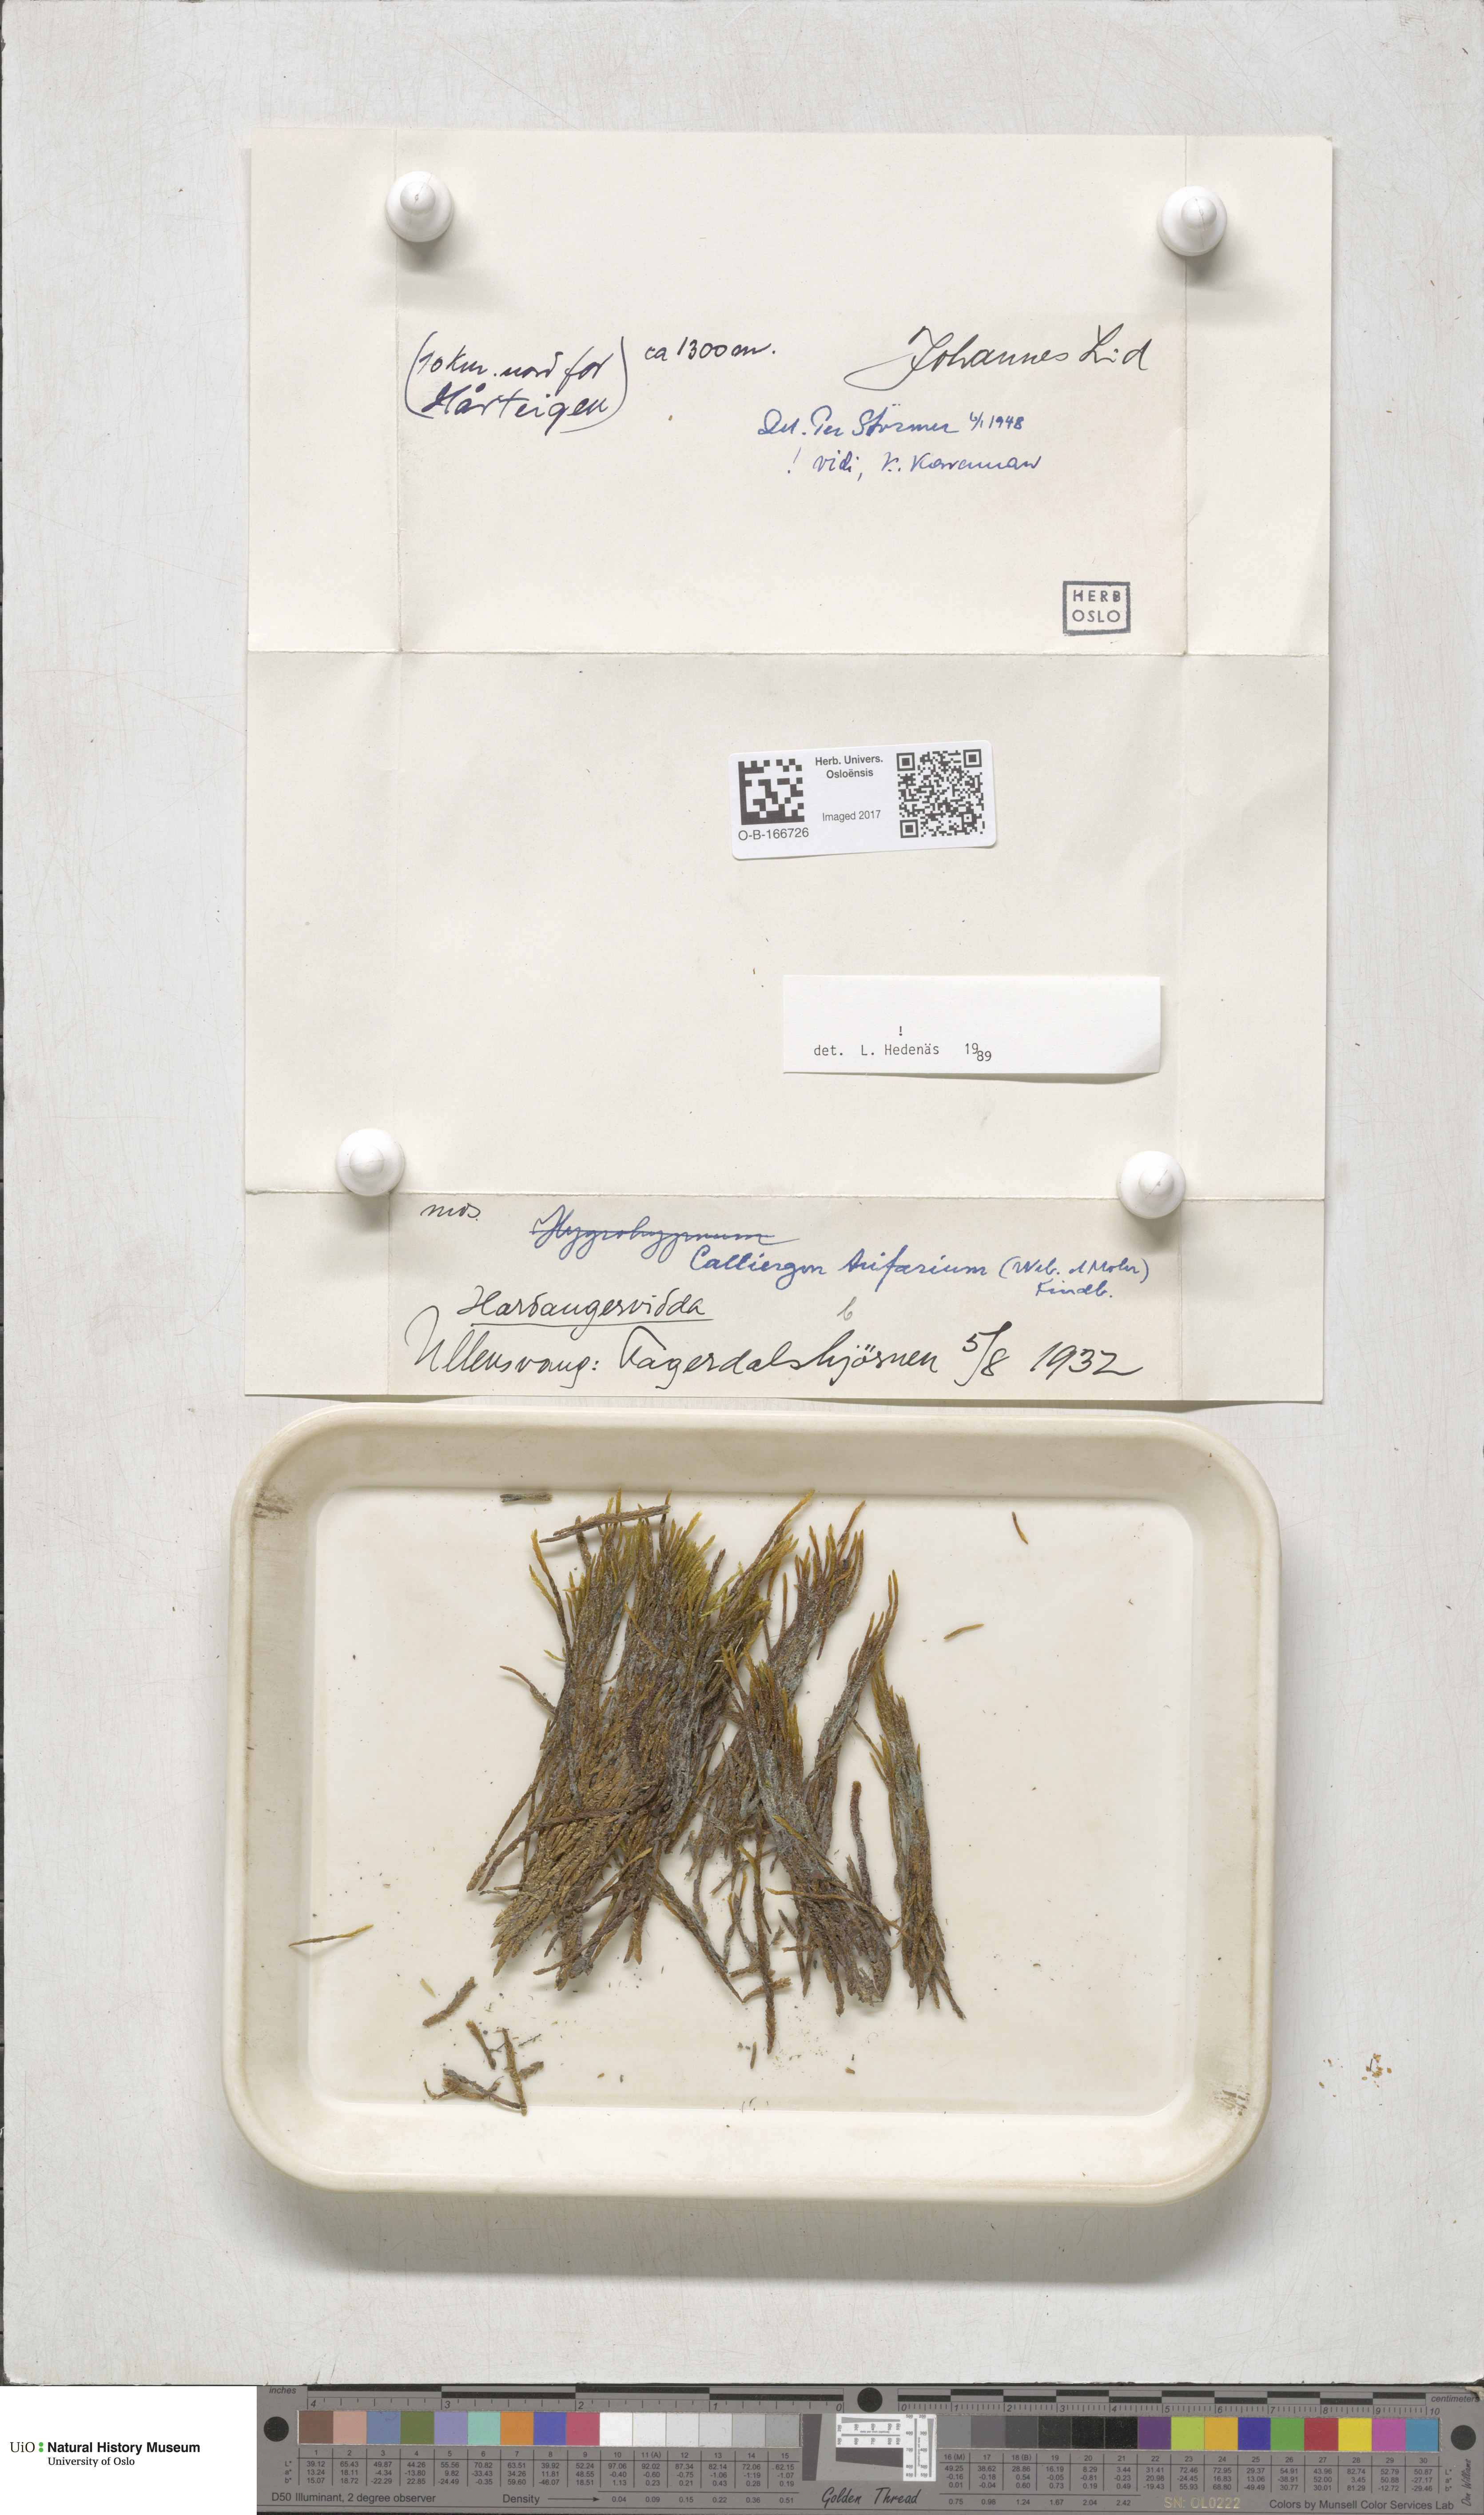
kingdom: Plantae
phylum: Bryophyta
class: Bryopsida
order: Hypnales
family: Amblystegiaceae
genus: Drepanocladus
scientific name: Drepanocladus trifarius
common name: Calliergon moss
